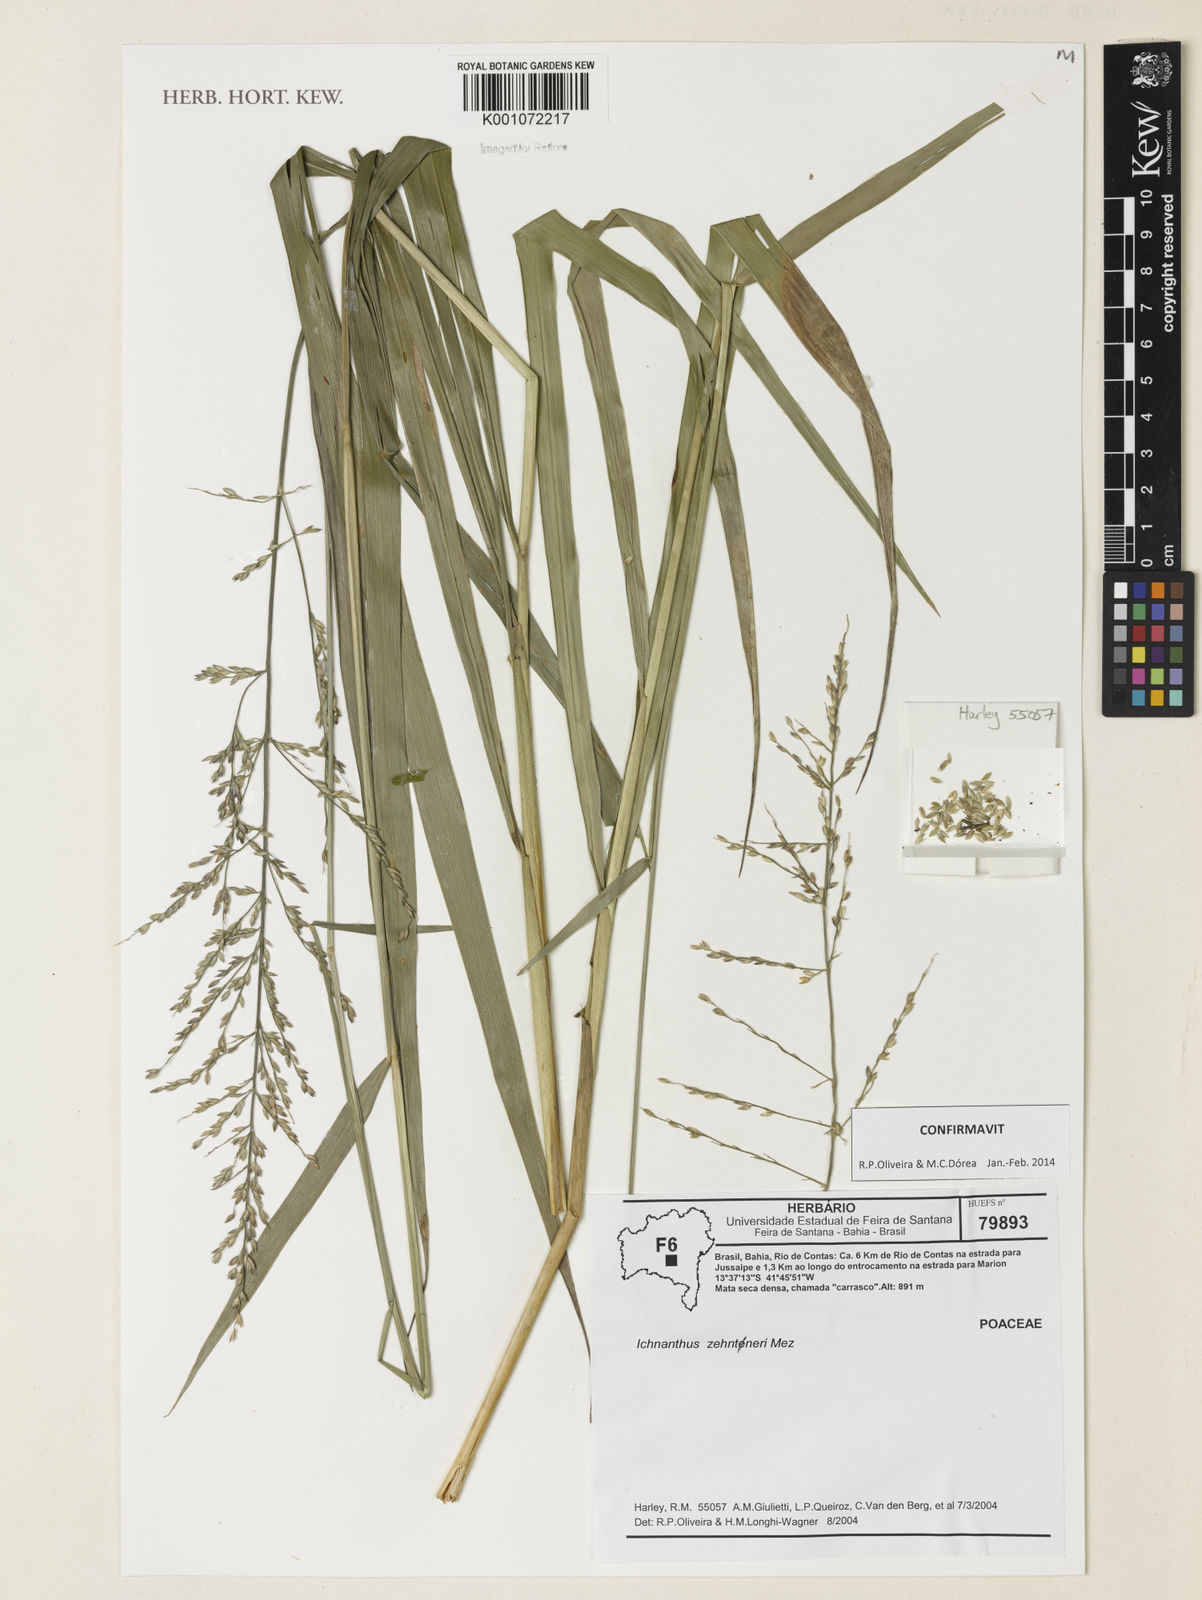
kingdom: Plantae
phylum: Tracheophyta
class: Liliopsida
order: Poales
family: Poaceae
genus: Ichnanthus
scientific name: Ichnanthus zehntneri
